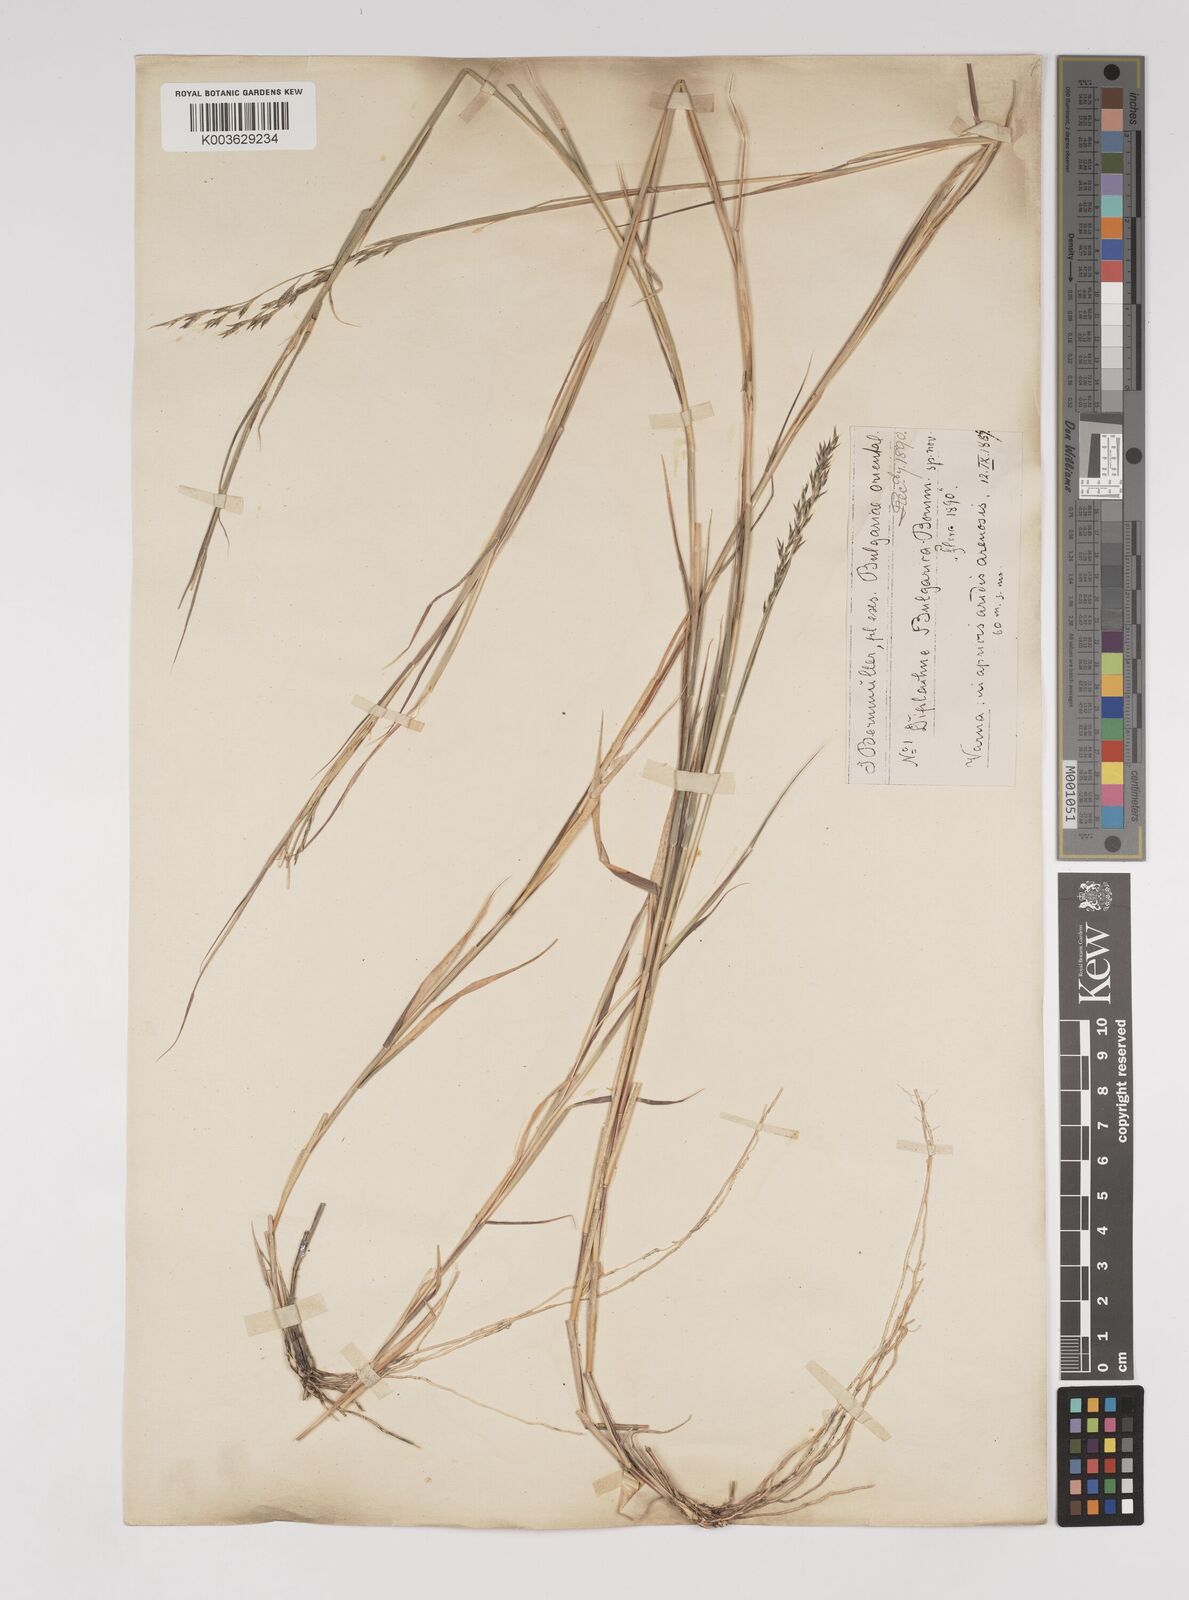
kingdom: Plantae
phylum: Tracheophyta
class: Liliopsida
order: Poales
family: Poaceae
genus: Cleistogenes
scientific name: Cleistogenes serotina
